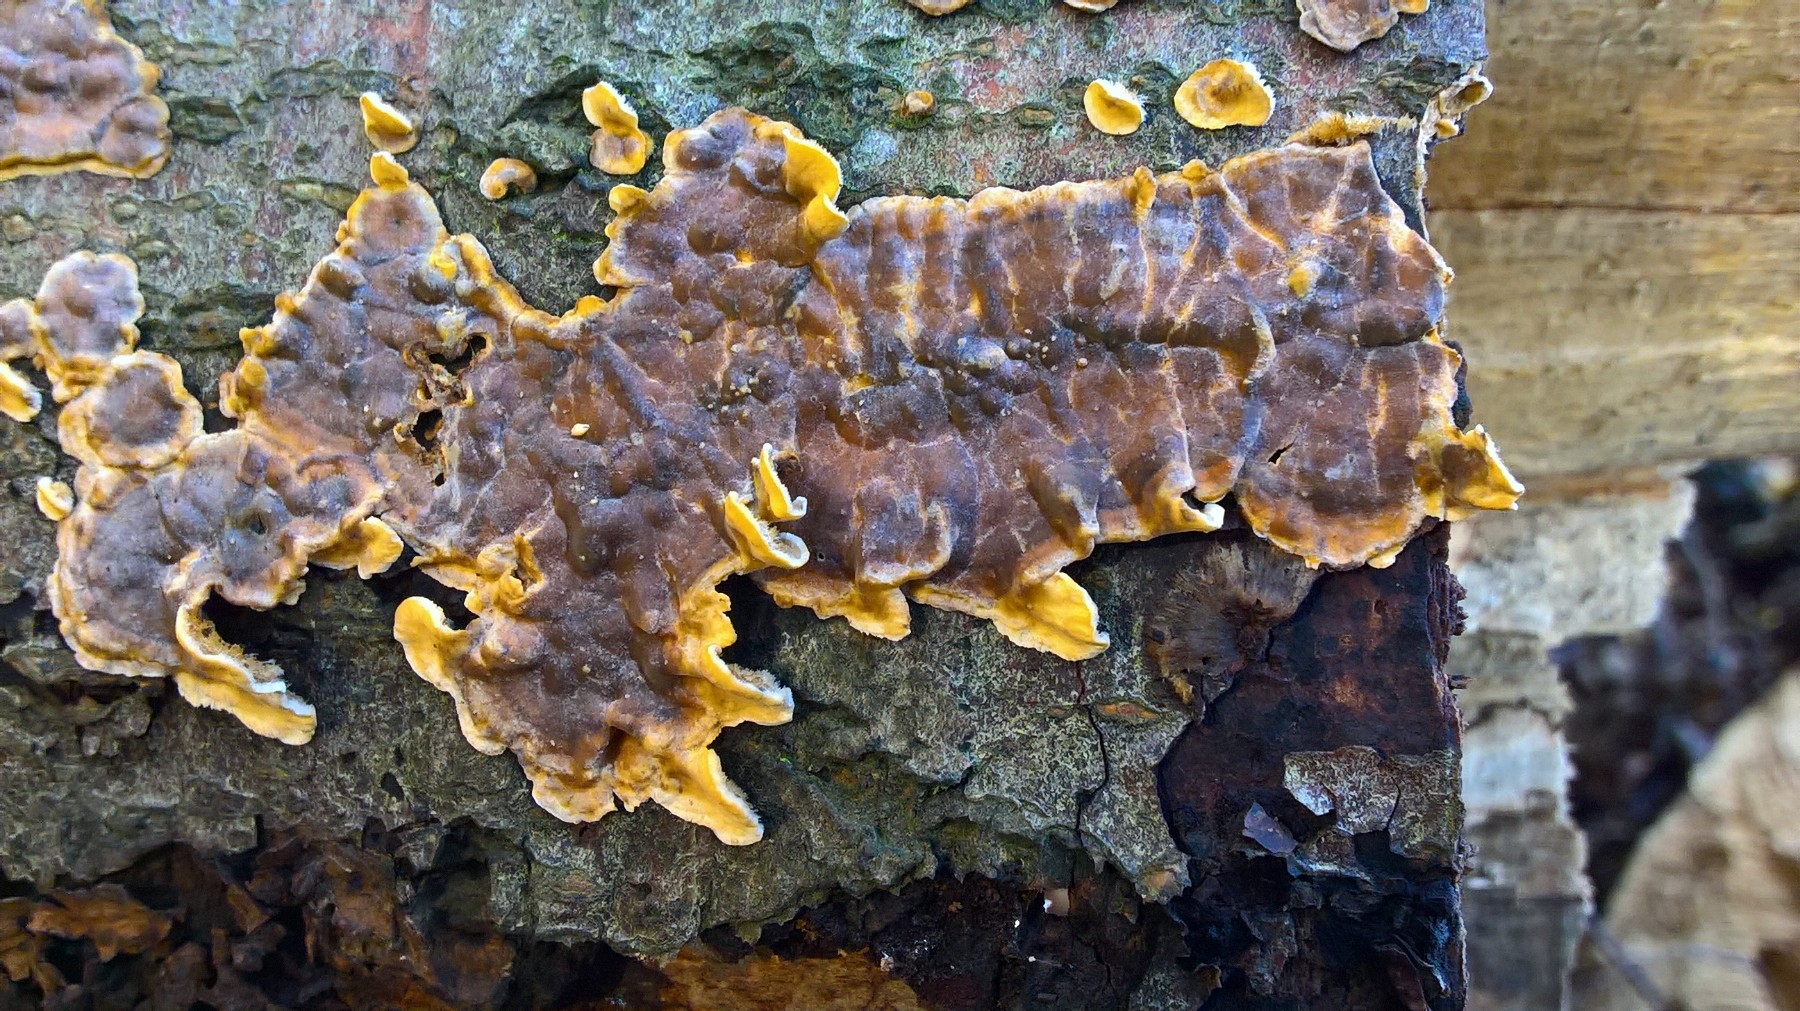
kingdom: Fungi
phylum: Basidiomycota
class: Agaricomycetes
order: Russulales
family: Stereaceae
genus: Stereum
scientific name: Stereum hirsutum
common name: håret lædersvamp
